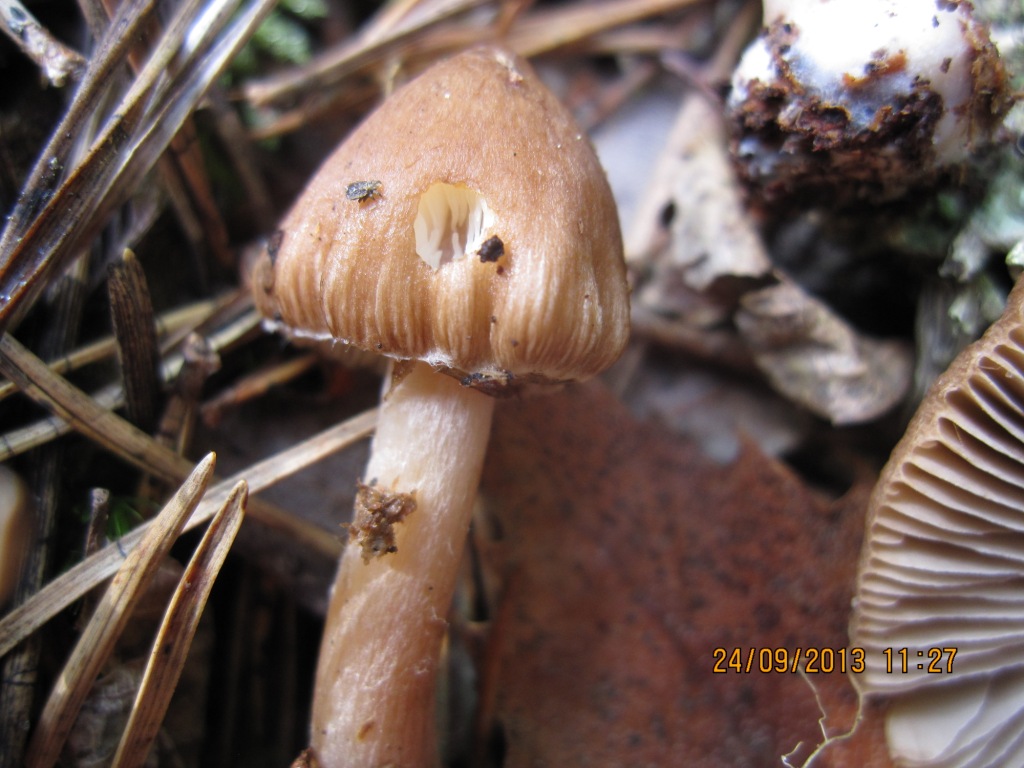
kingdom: Fungi
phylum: Basidiomycota
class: Agaricomycetes
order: Agaricales
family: Inocybaceae
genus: Inocybe
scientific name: Inocybe napipes
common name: roeknoldet trævlhat
